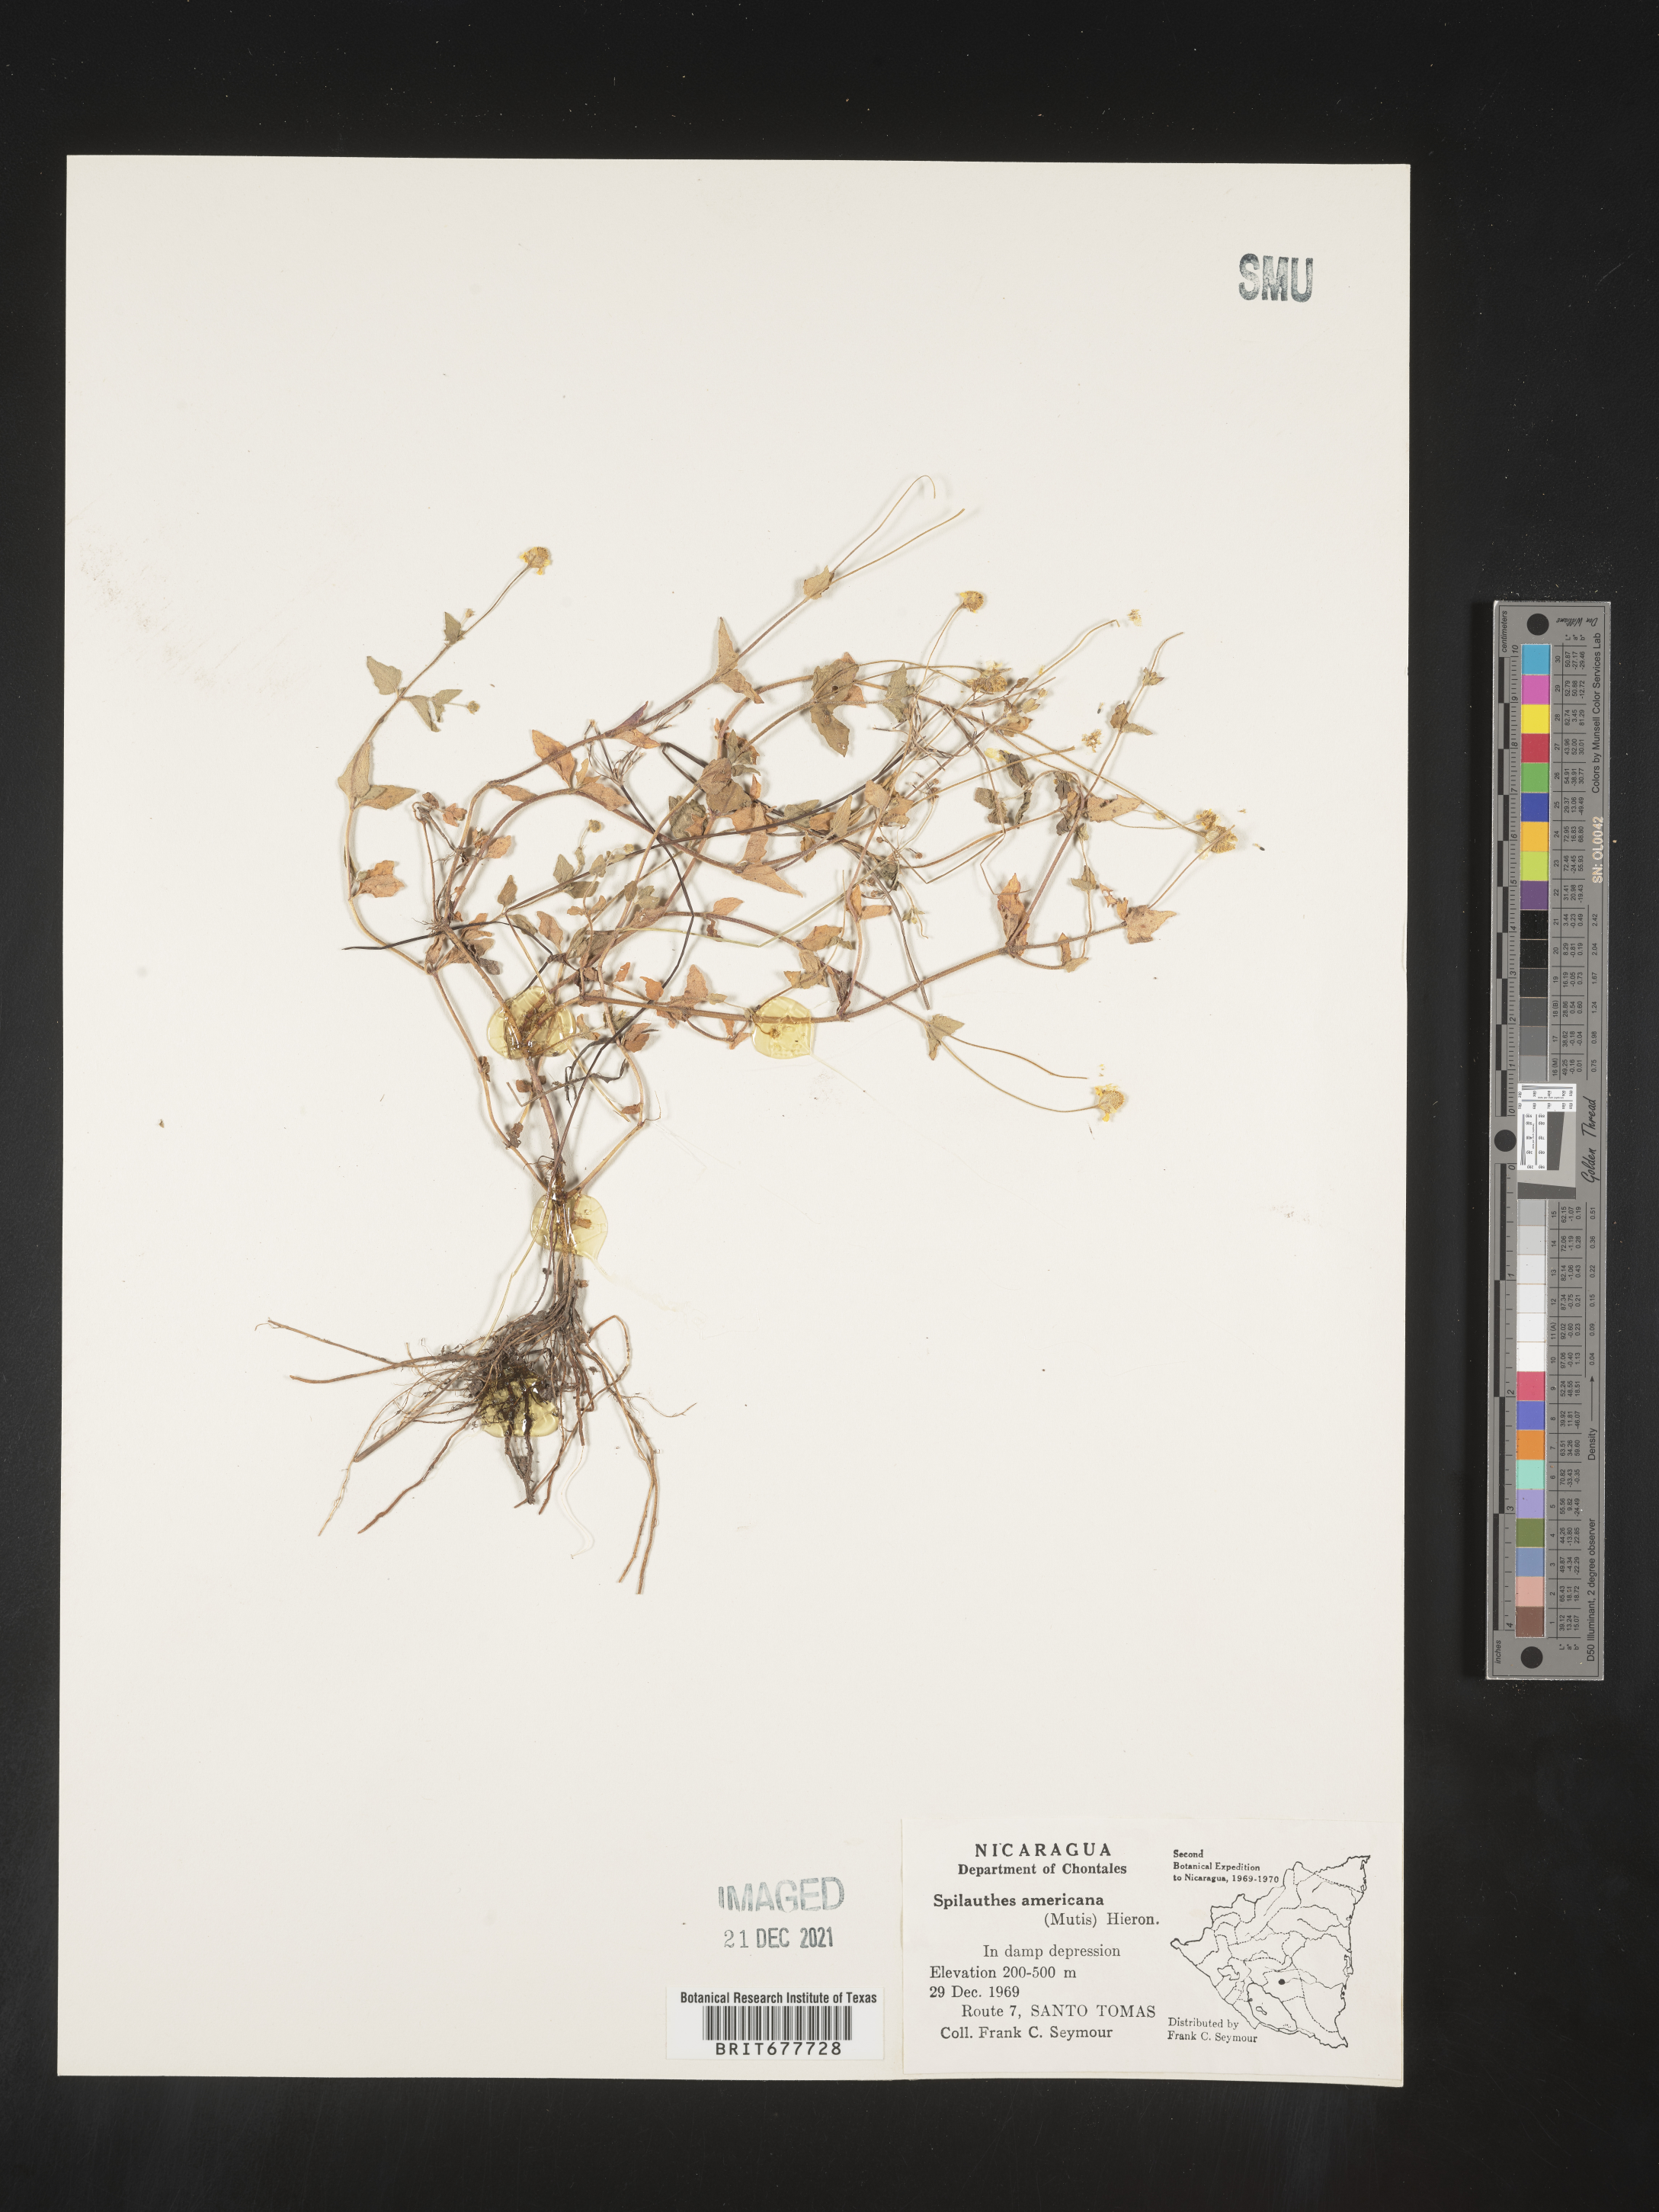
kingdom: Plantae
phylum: Tracheophyta
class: Magnoliopsida
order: Asterales
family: Asteraceae
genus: Spilanthes
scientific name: Spilanthes
